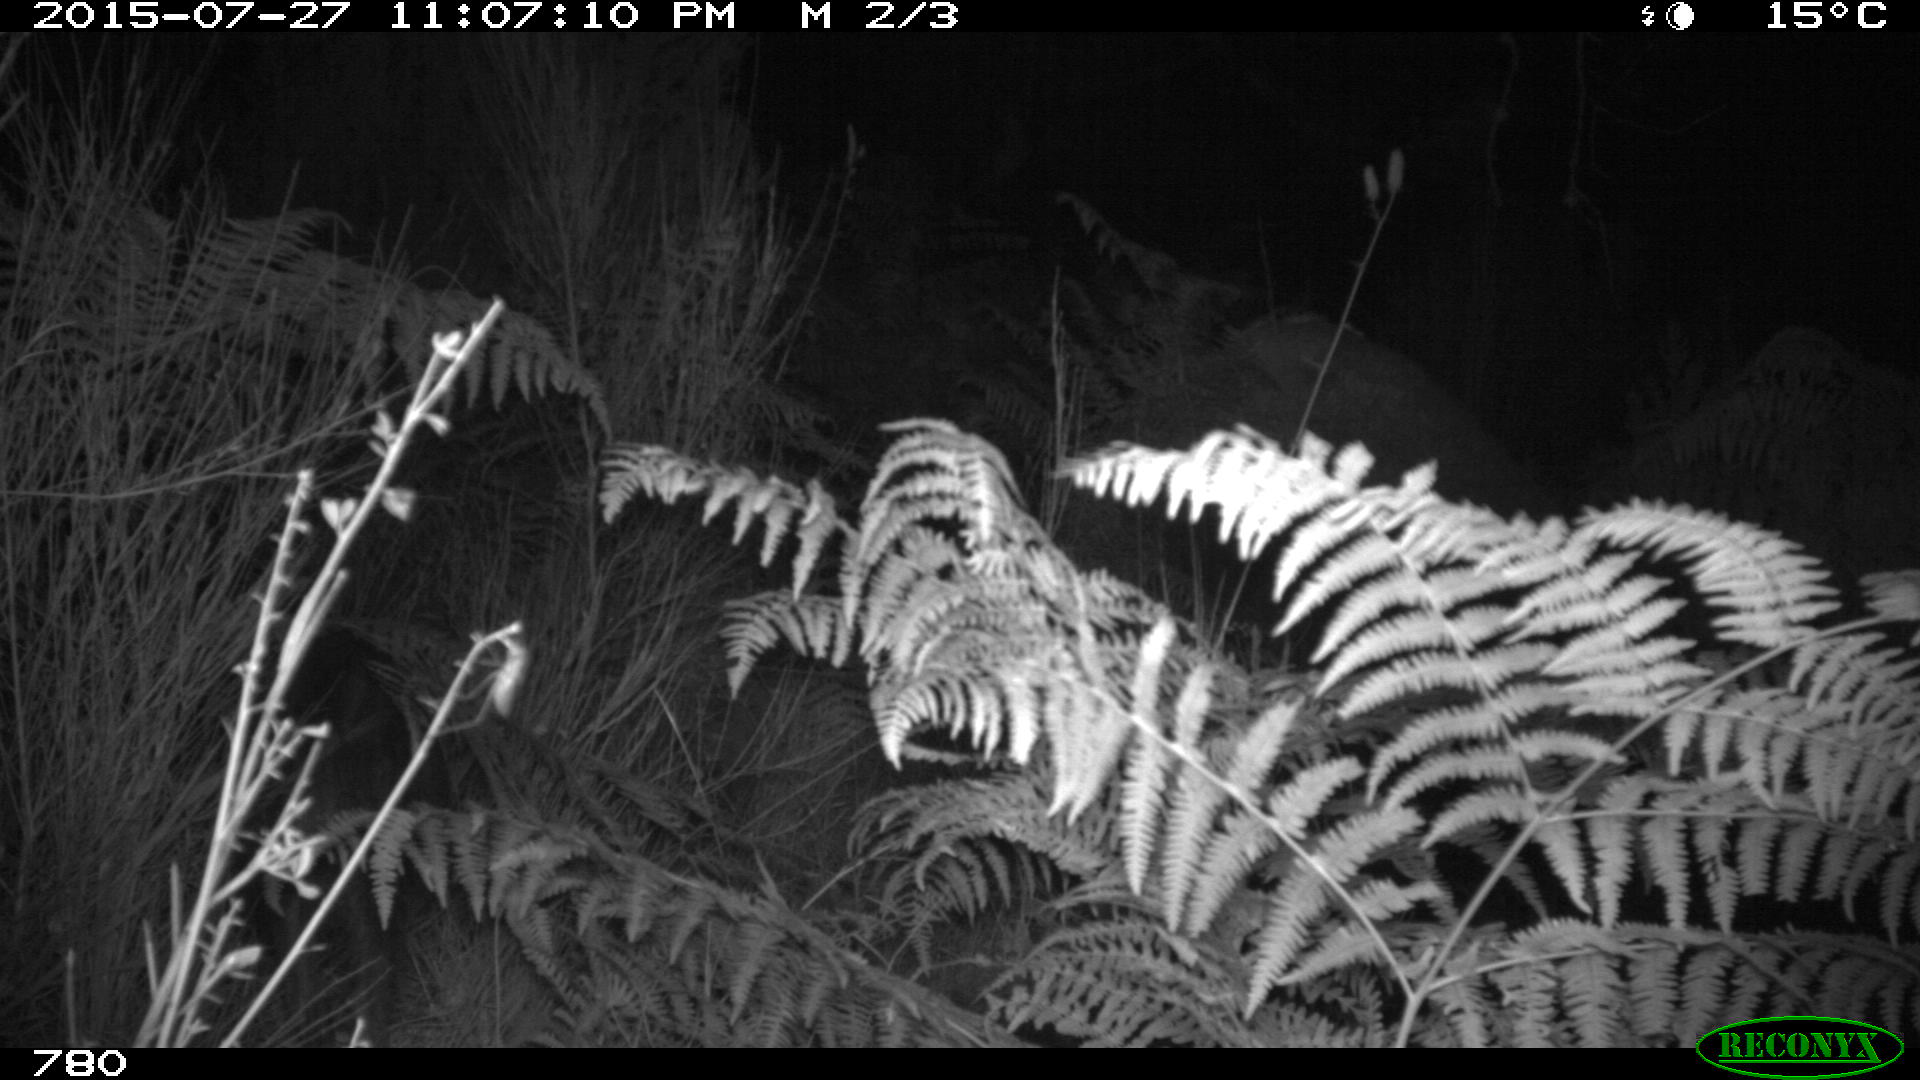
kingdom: Animalia
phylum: Chordata
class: Mammalia
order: Artiodactyla
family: Suidae
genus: Sus
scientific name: Sus scrofa
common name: Wild boar
